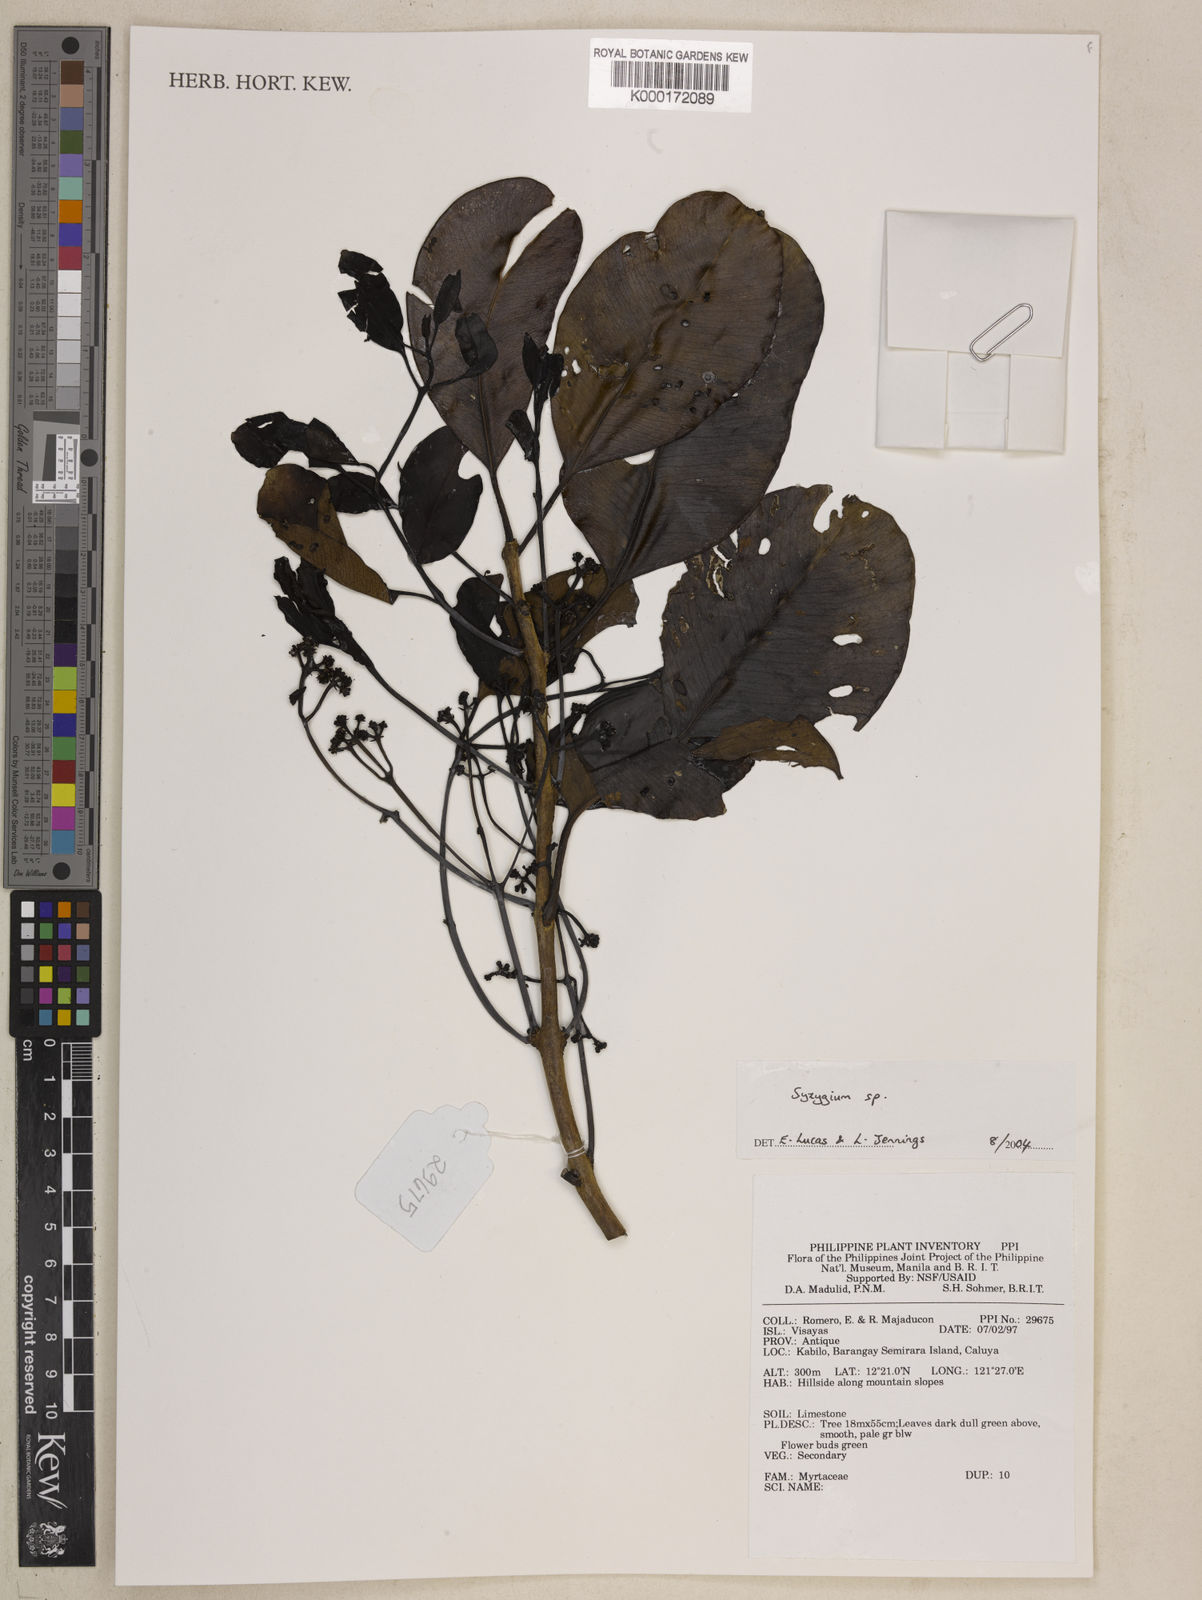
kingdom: Plantae
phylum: Tracheophyta
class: Magnoliopsida
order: Myrtales
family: Myrtaceae
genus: Syzygium
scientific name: Syzygium
